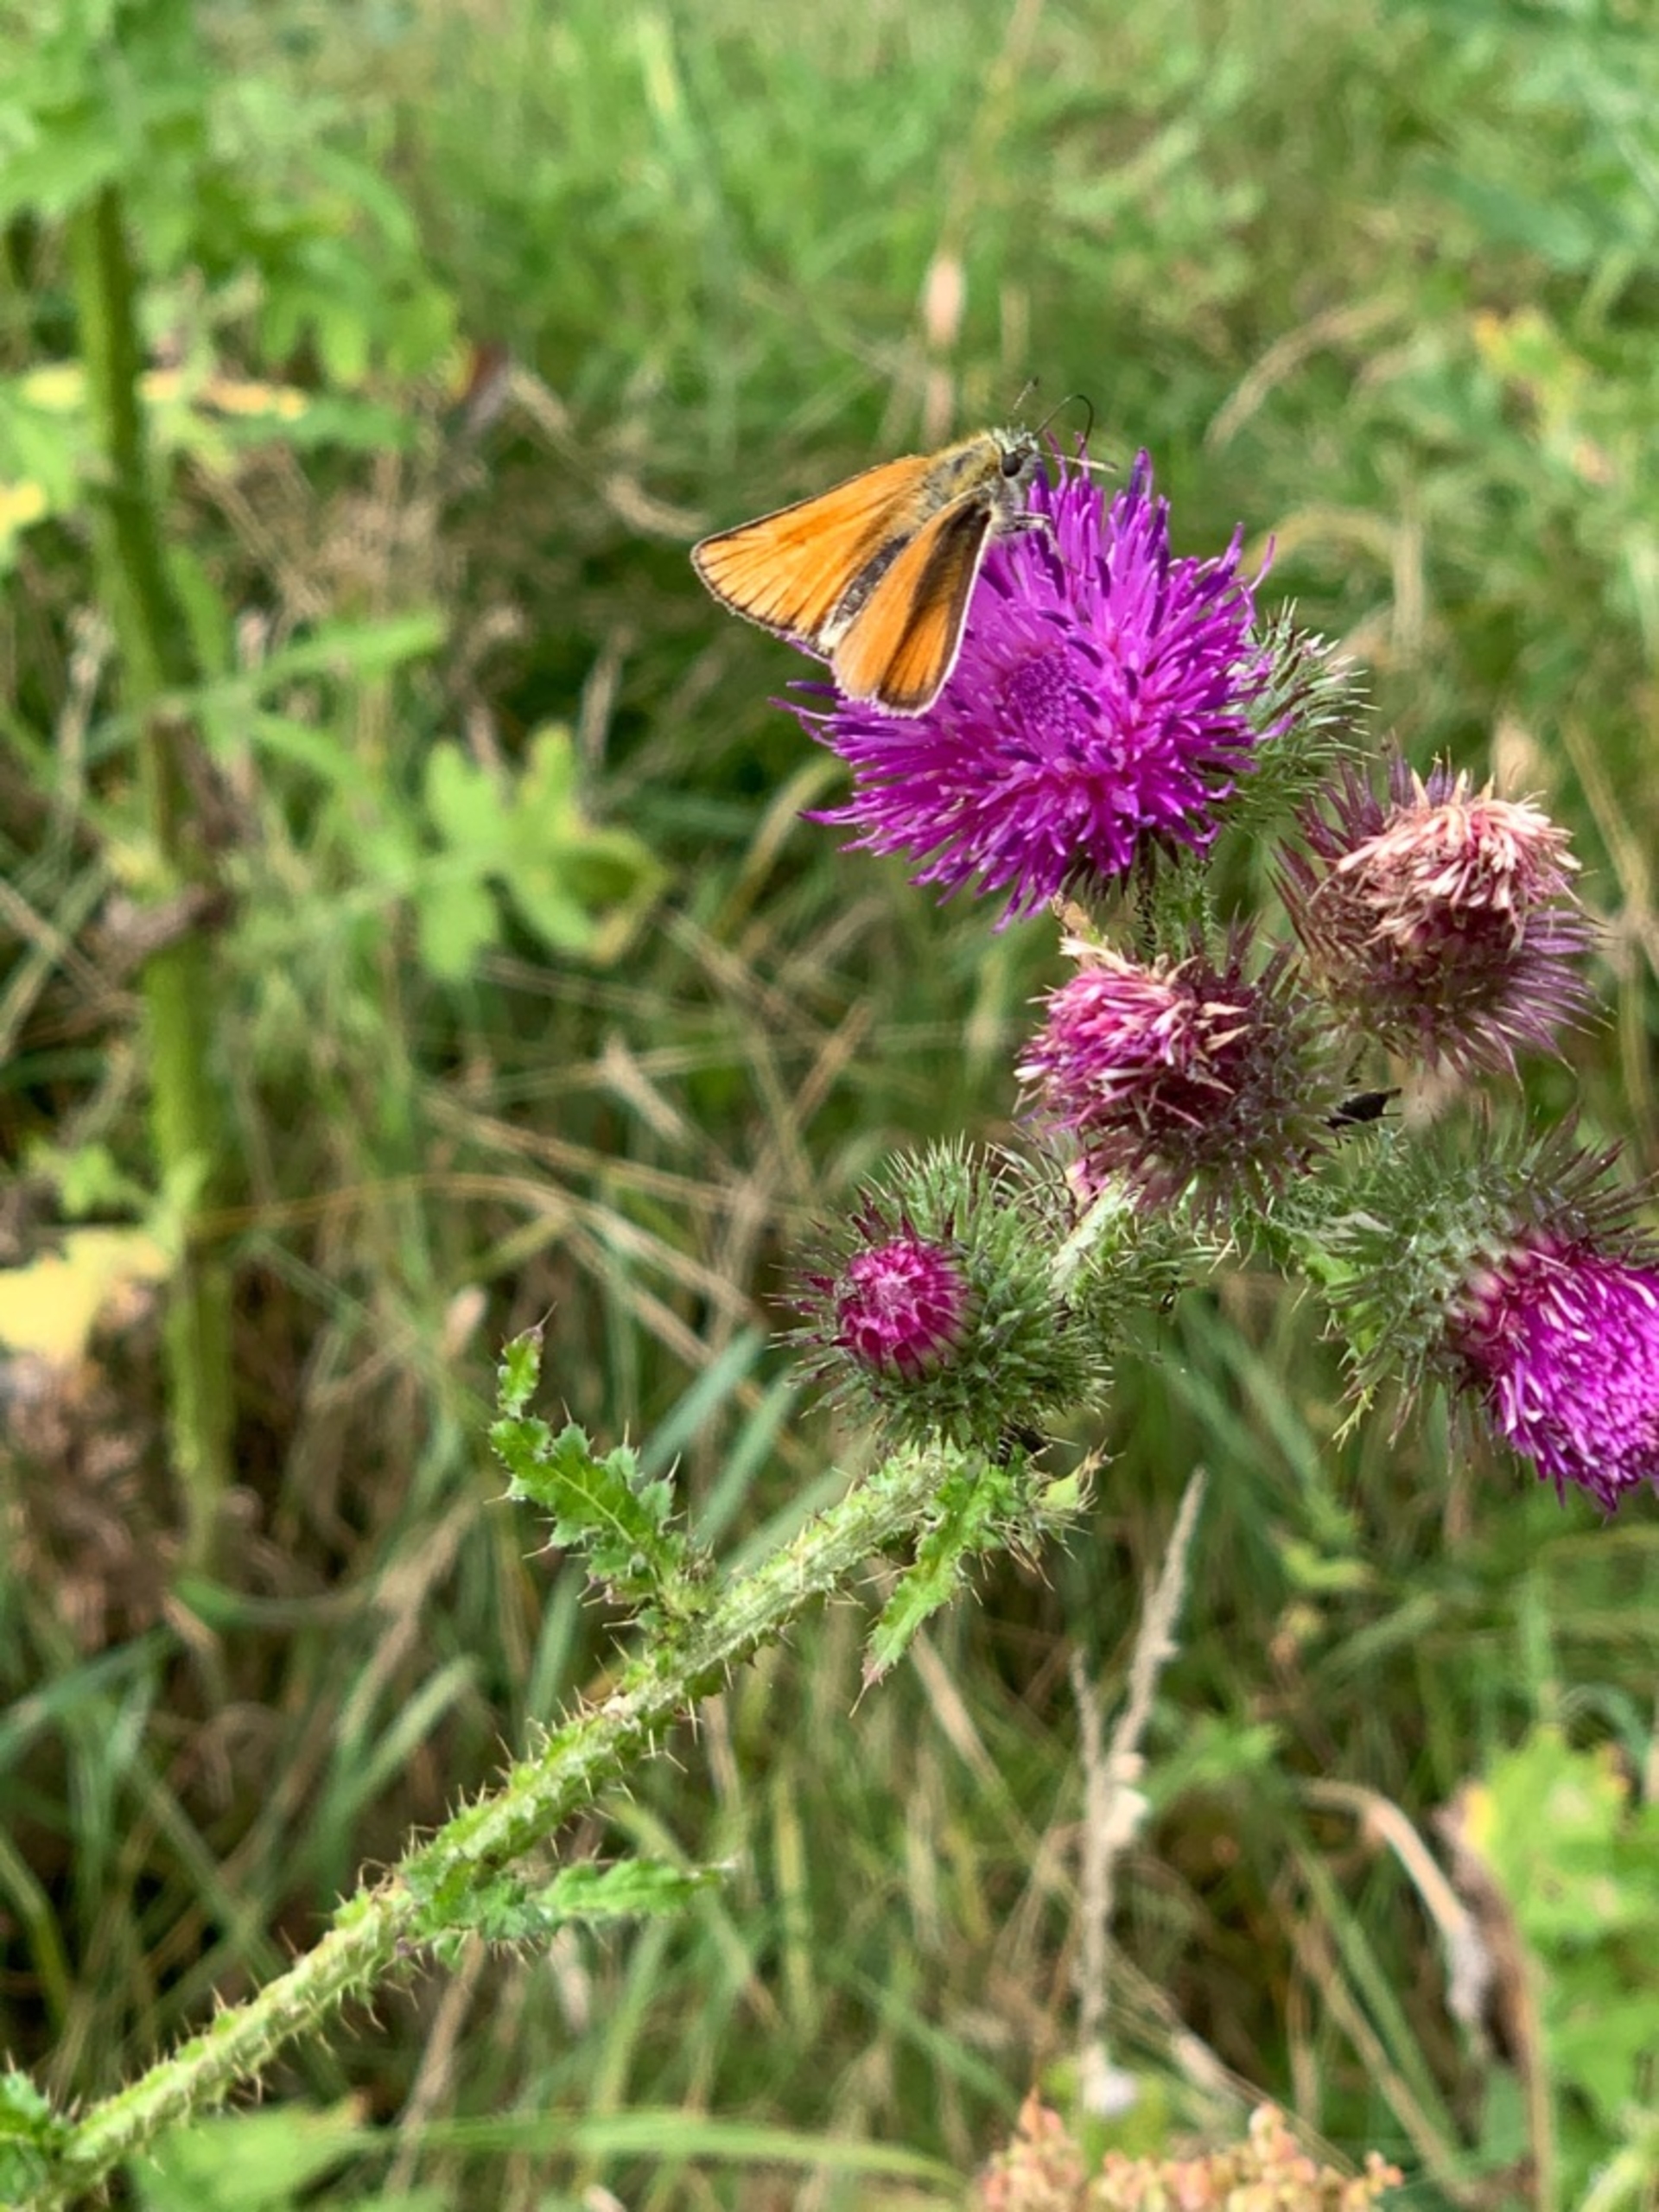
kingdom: Animalia
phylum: Arthropoda
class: Insecta
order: Lepidoptera
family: Hesperiidae
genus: Thymelicus
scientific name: Thymelicus lineola
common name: Stregbredpande
